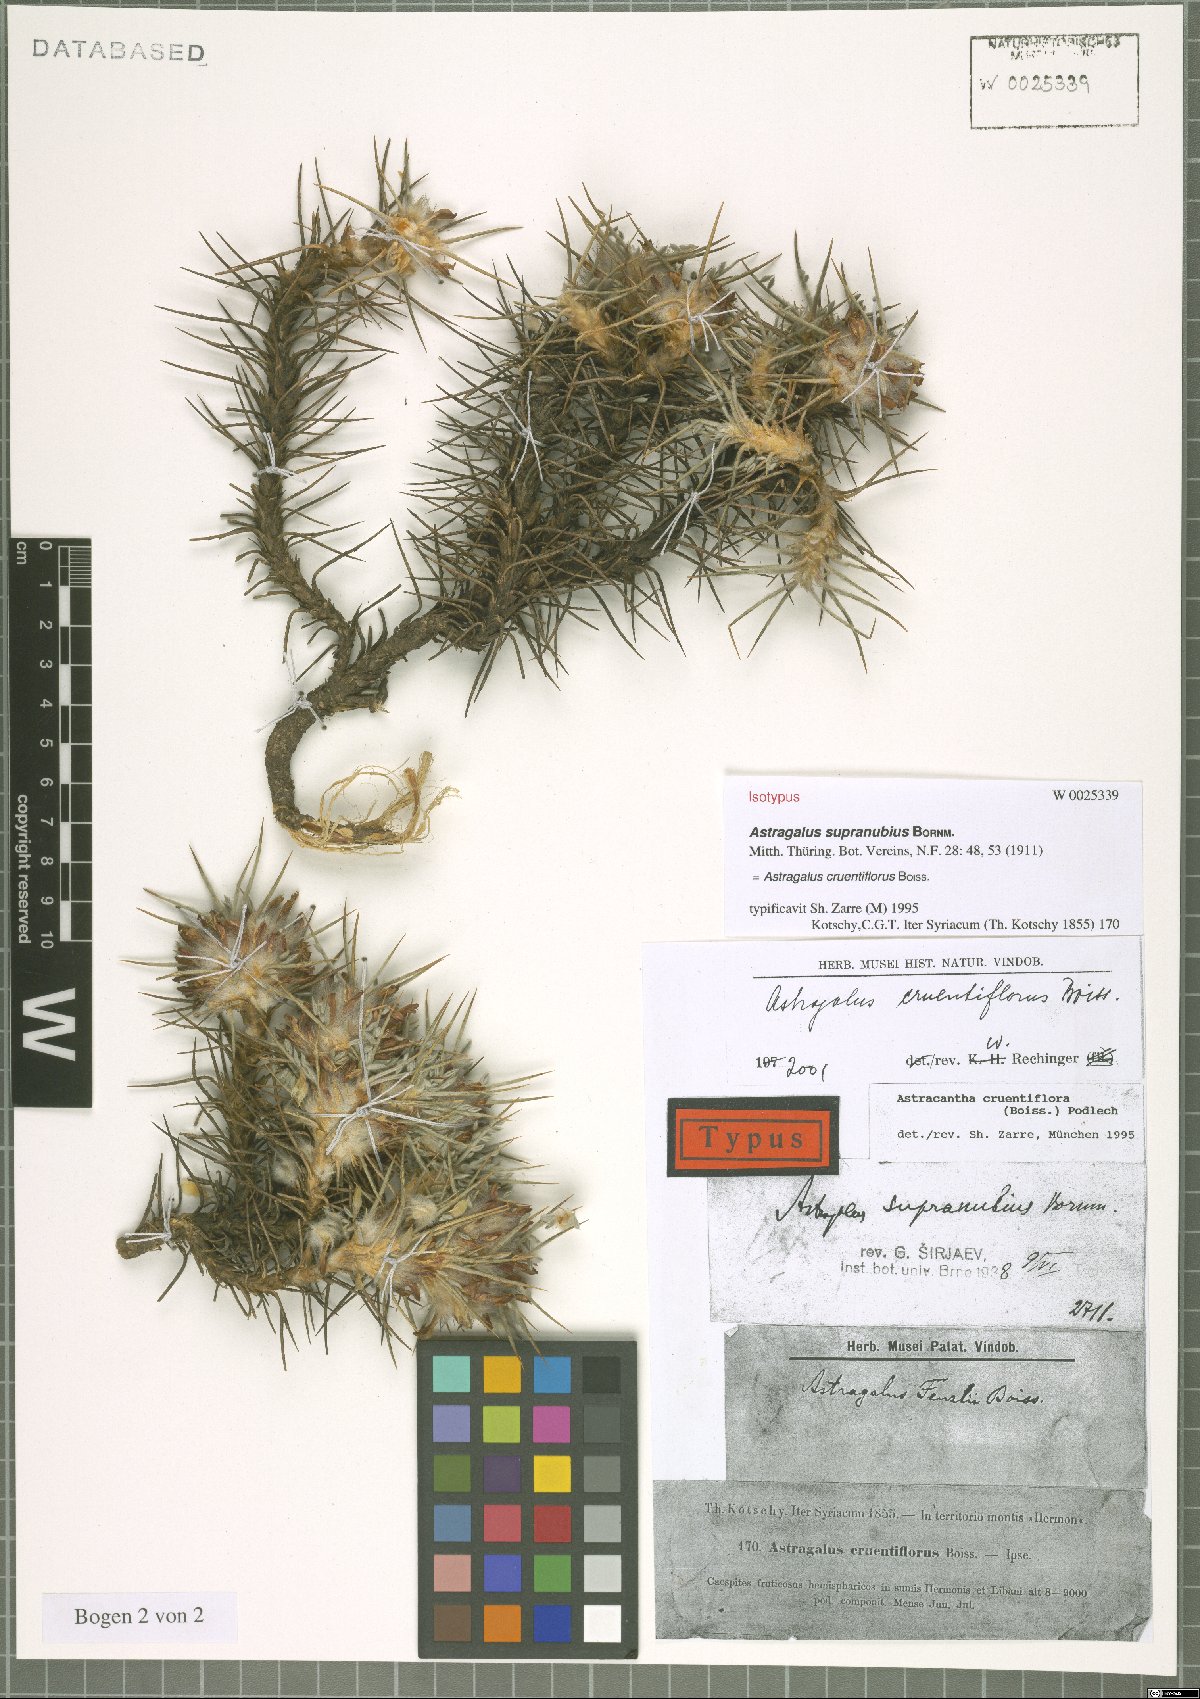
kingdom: Plantae
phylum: Tracheophyta
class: Magnoliopsida
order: Fabales
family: Fabaceae
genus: Astragalus
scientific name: Astragalus cruentiflorus
